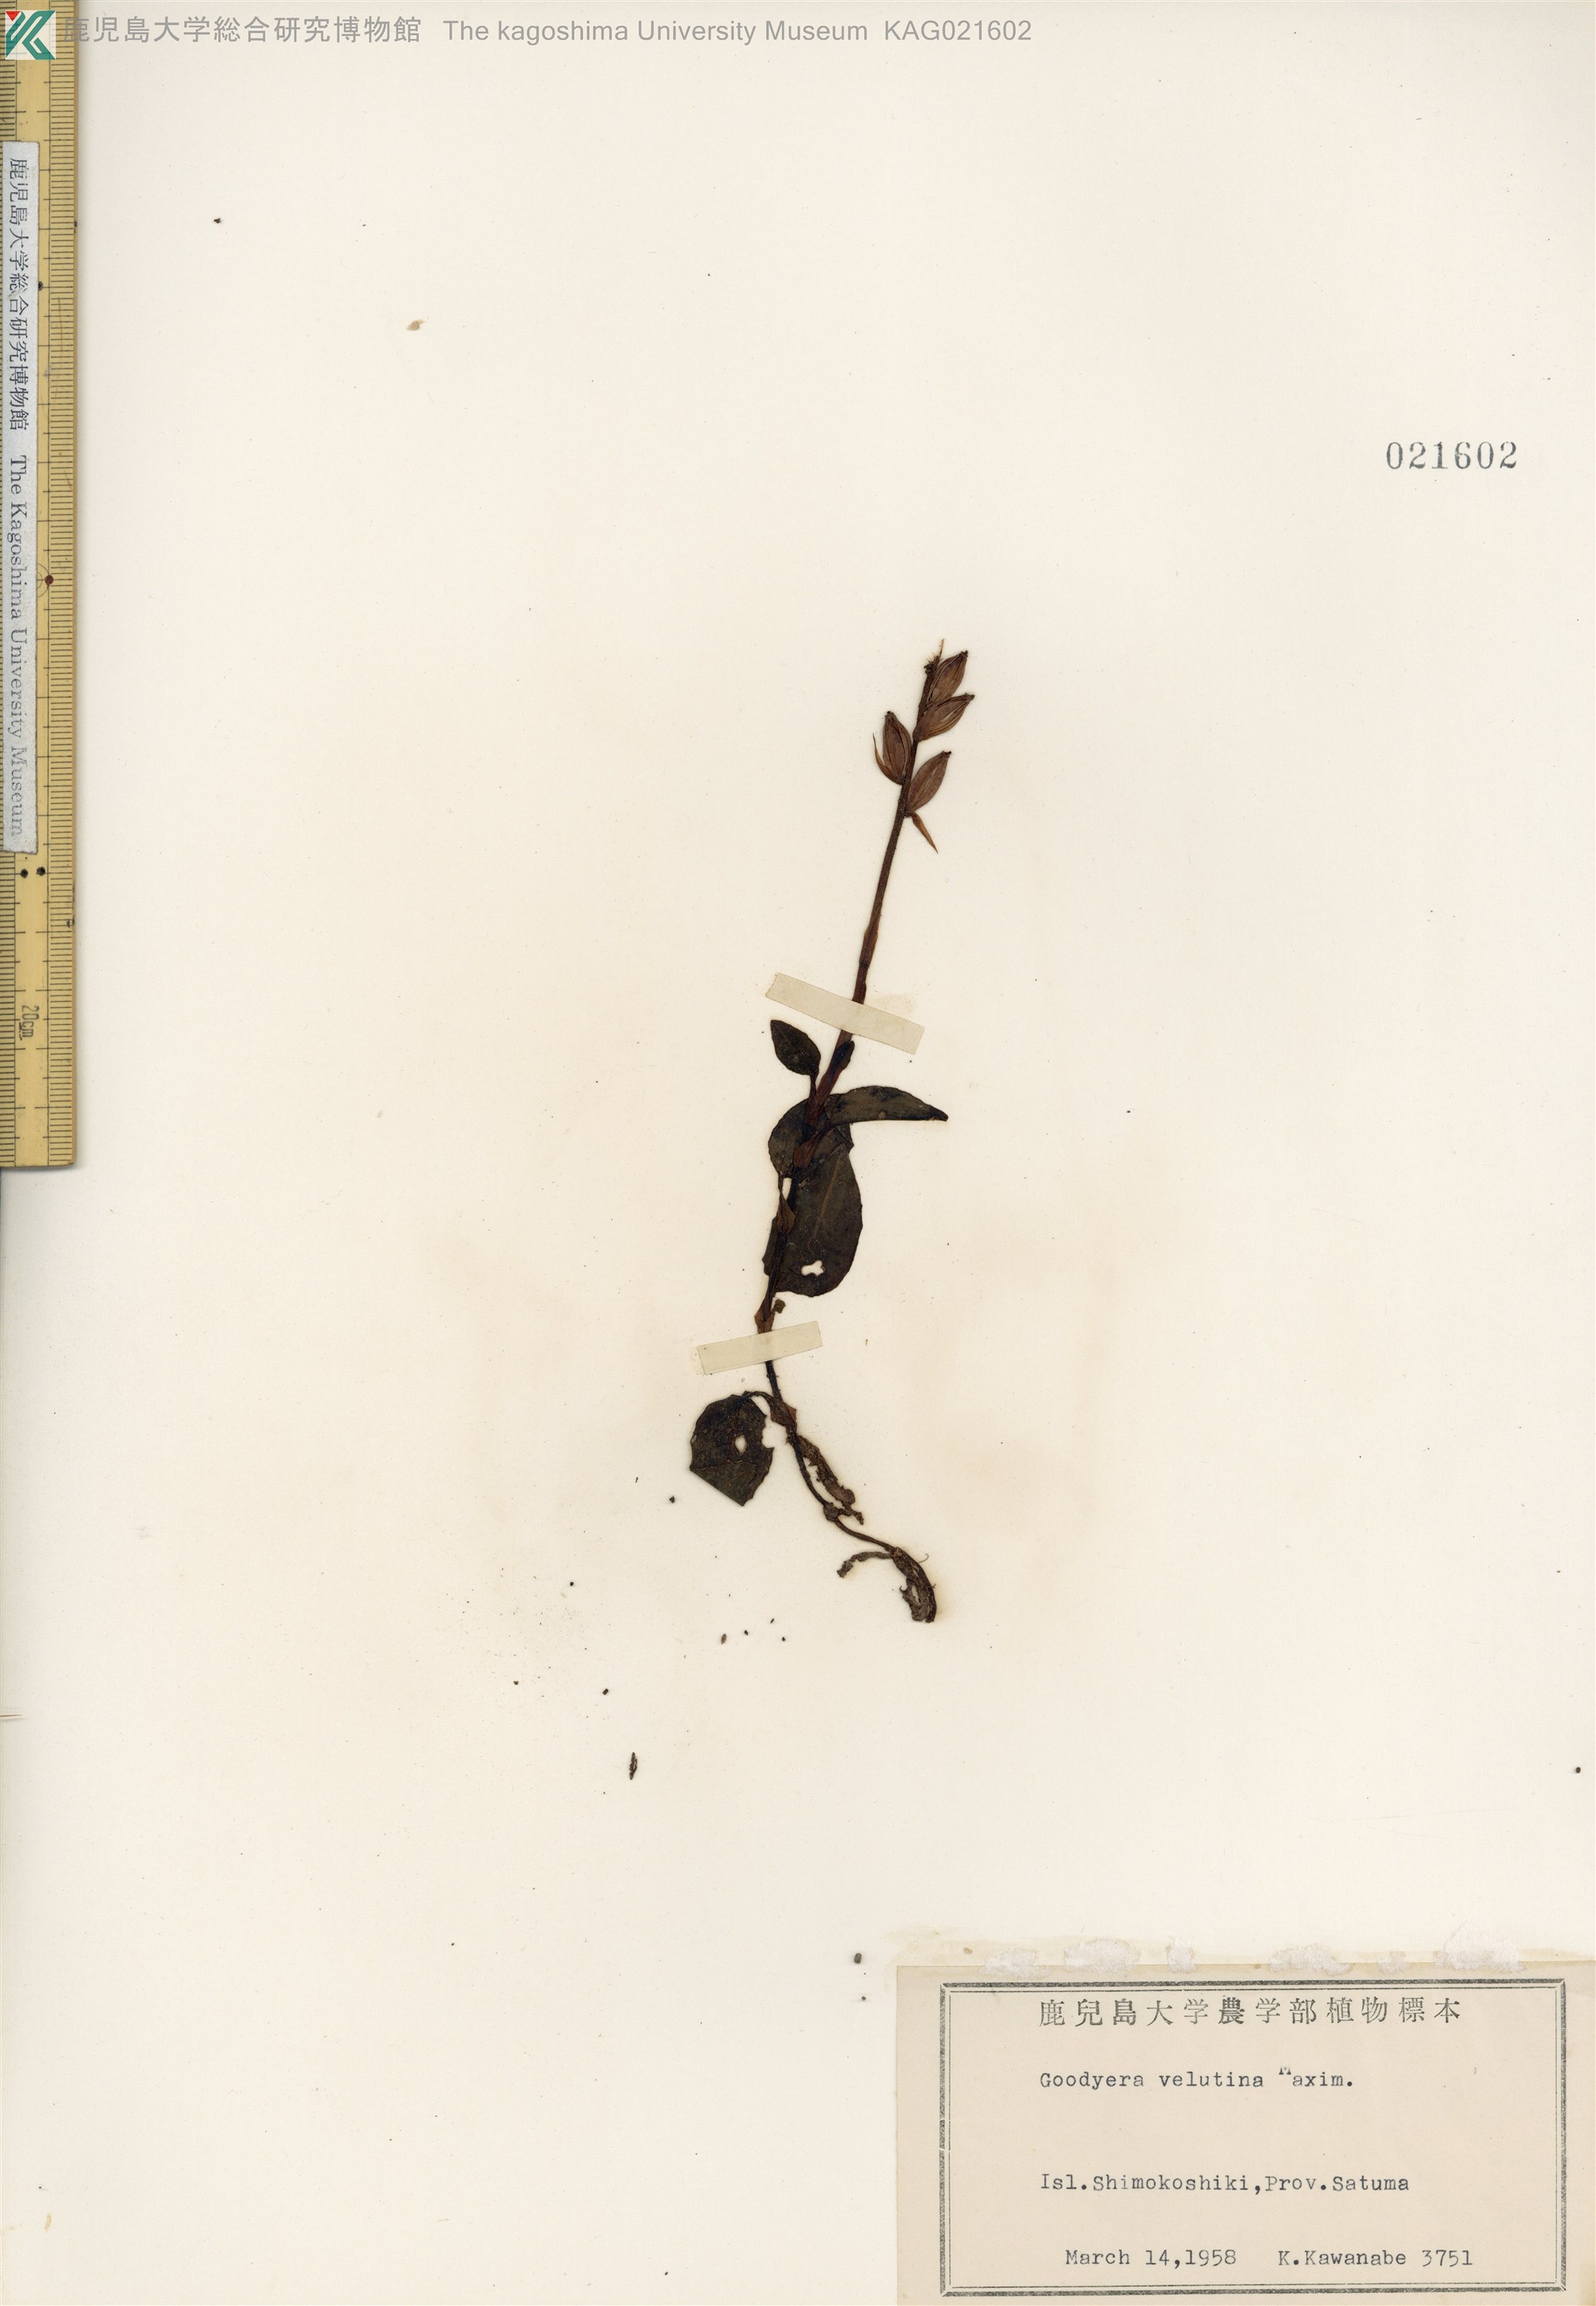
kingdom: Plantae
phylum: Tracheophyta
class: Liliopsida
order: Asparagales
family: Orchidaceae
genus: Goodyera
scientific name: Goodyera velutina
